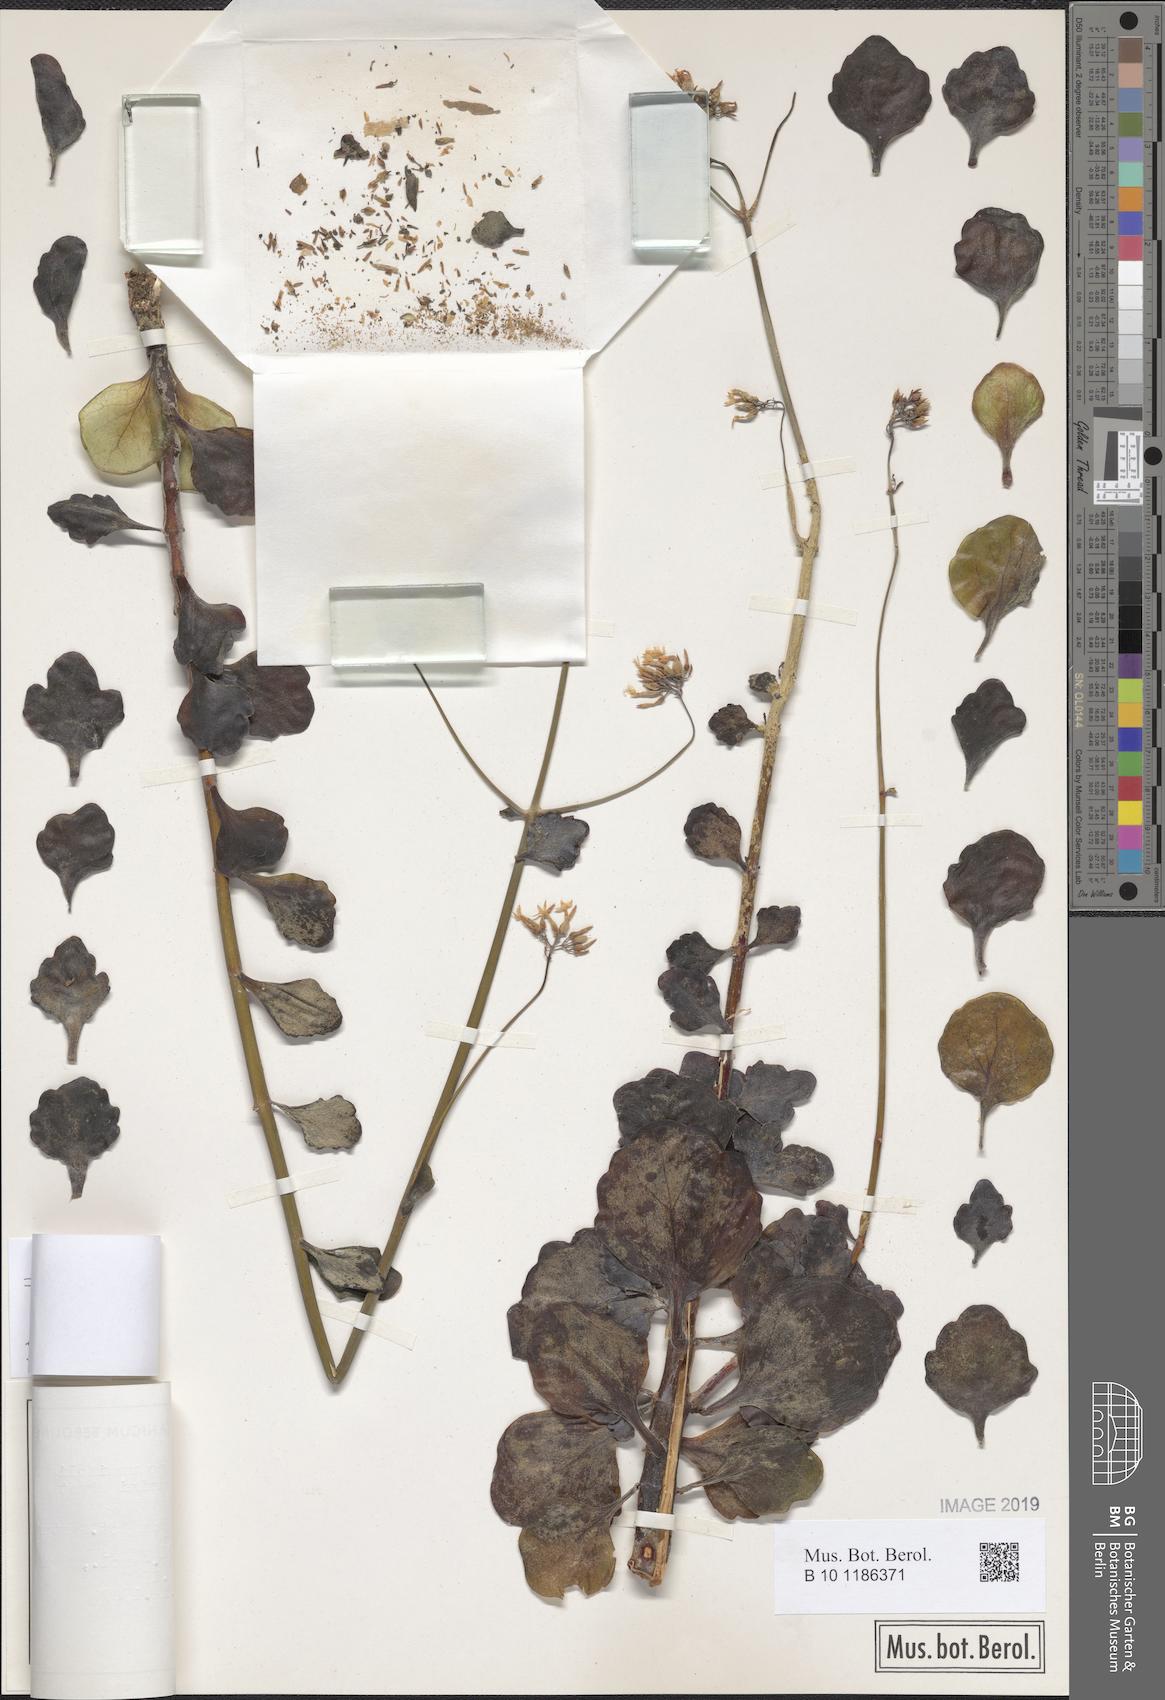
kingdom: Plantae
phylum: Tracheophyta
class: Magnoliopsida
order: Saxifragales
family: Crassulaceae
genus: Kalanchoe
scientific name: Kalanchoe rotundifolia
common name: Common kalanchoe
